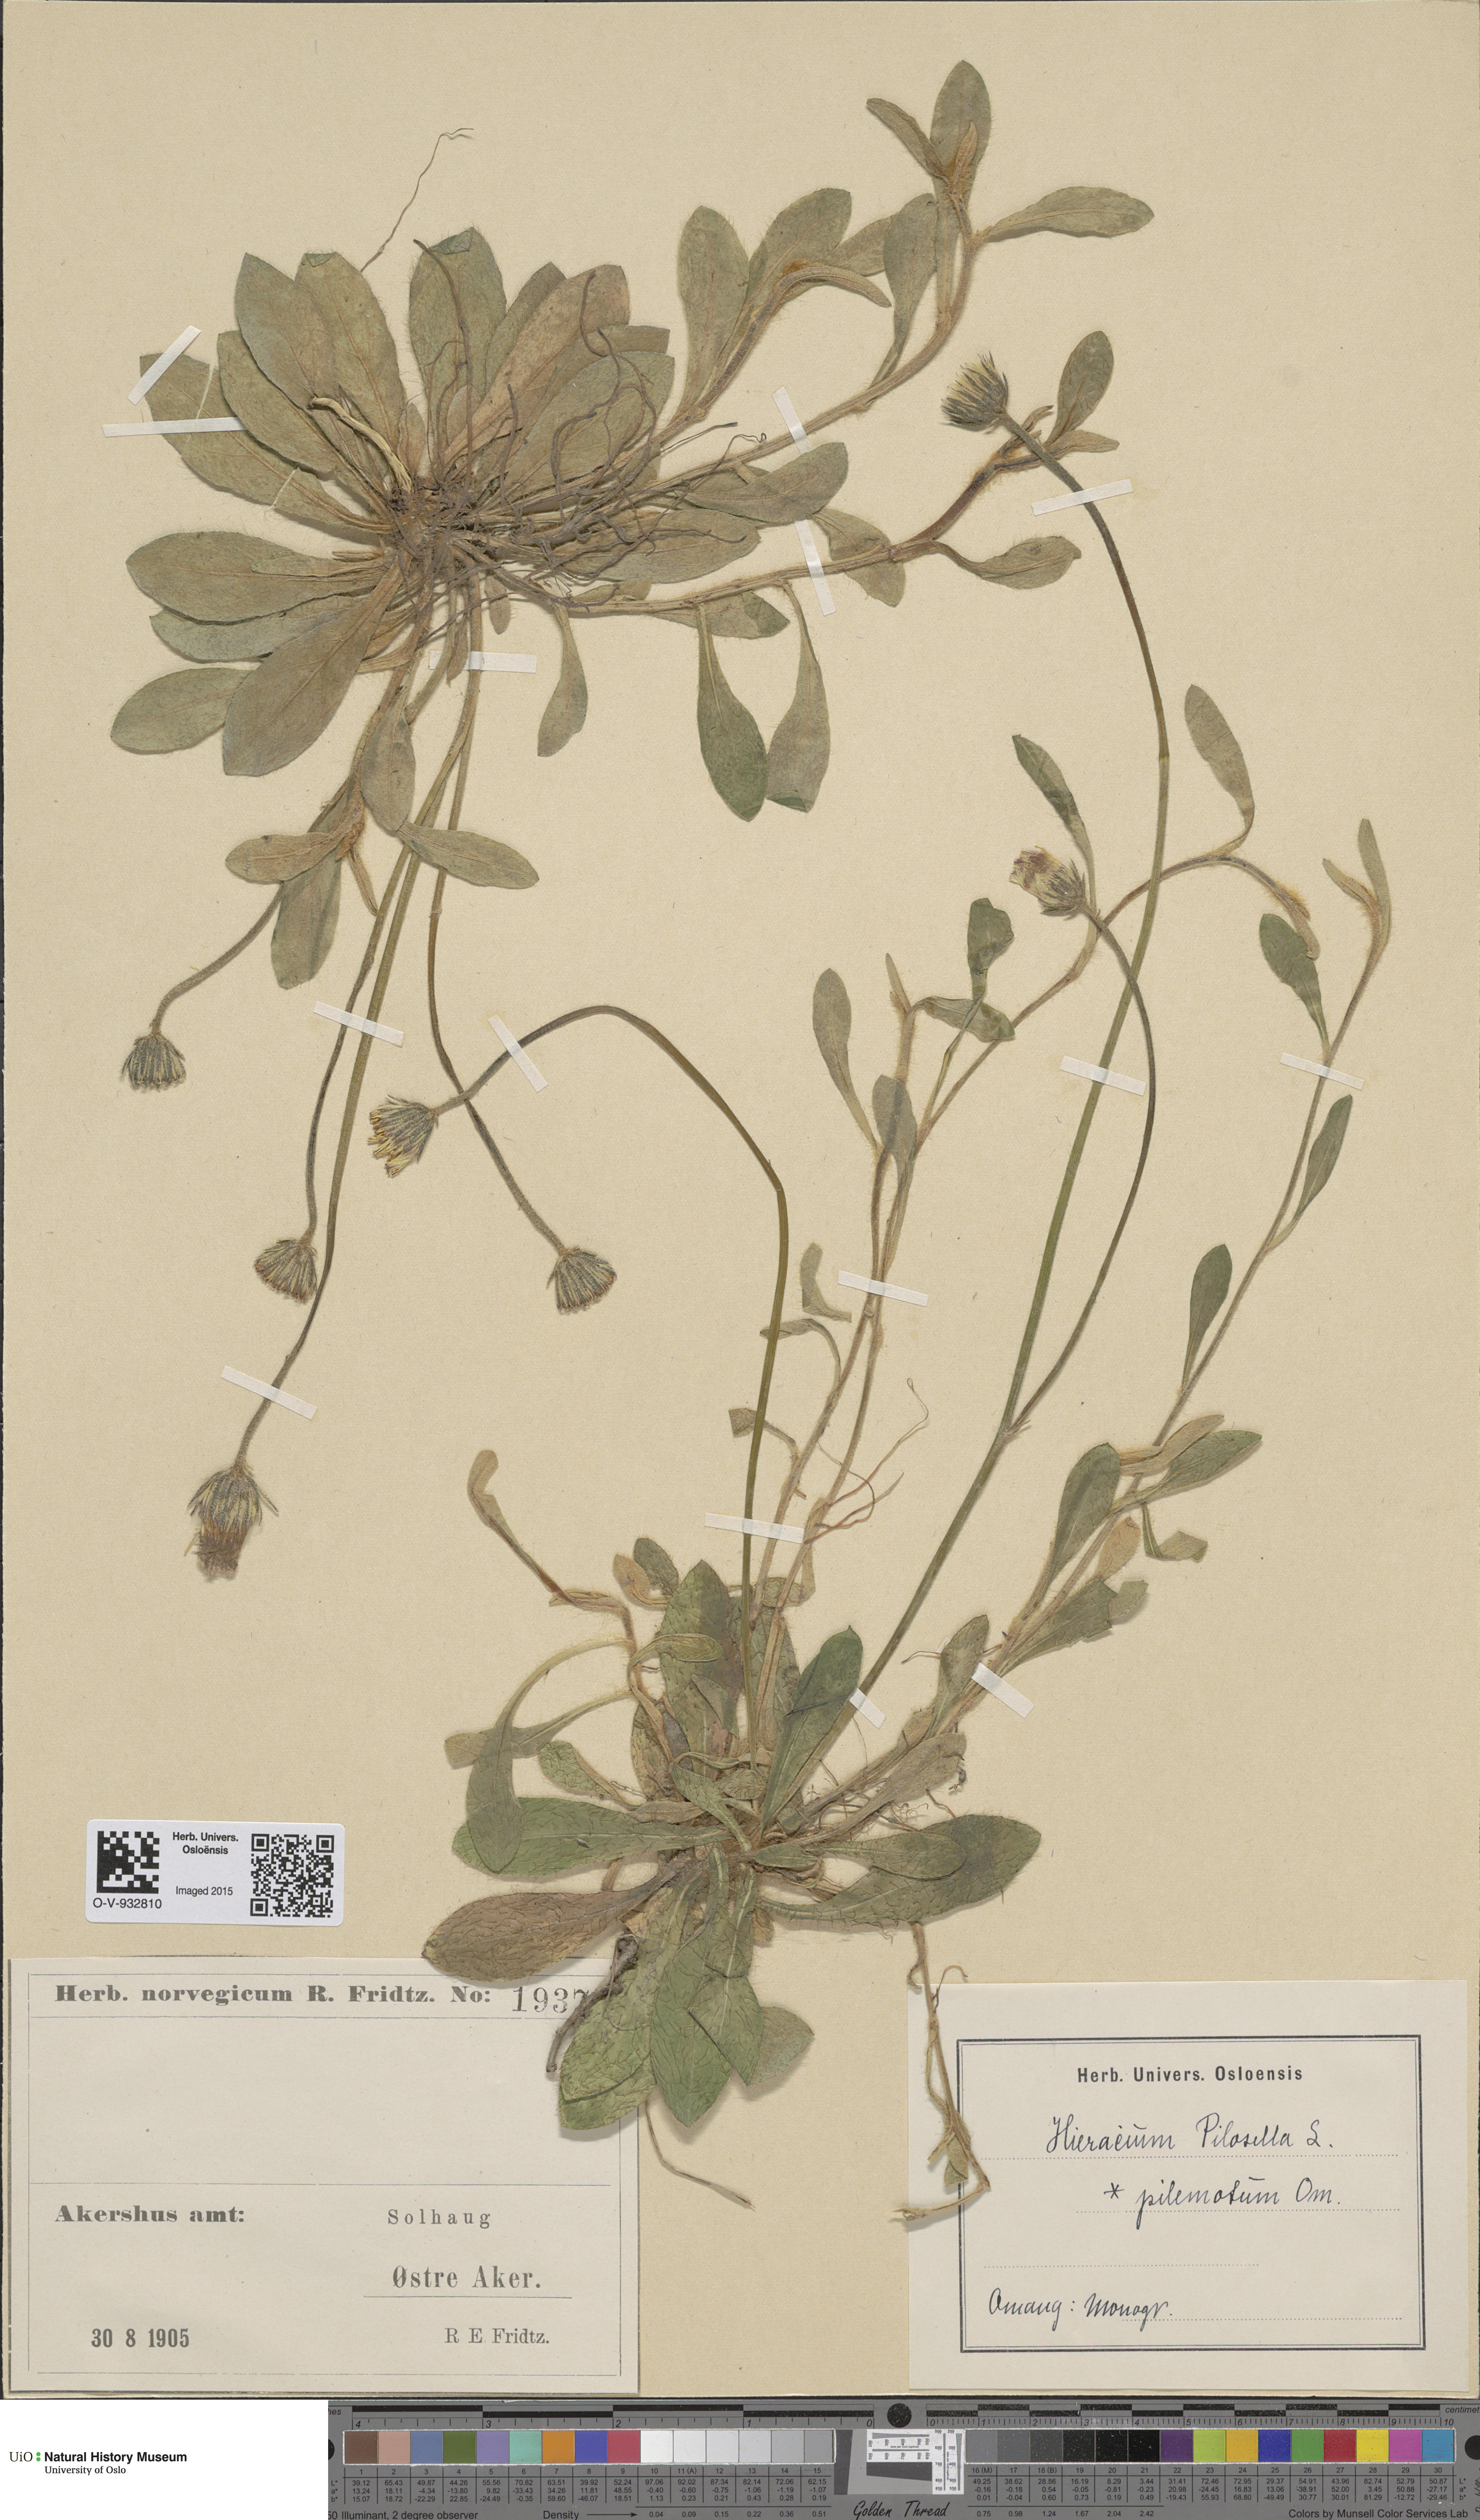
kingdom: Plantae
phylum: Tracheophyta
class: Magnoliopsida
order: Asterales
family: Asteraceae
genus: Pilosella
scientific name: Pilosella officinarum
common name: Mouse-ear hawkweed
